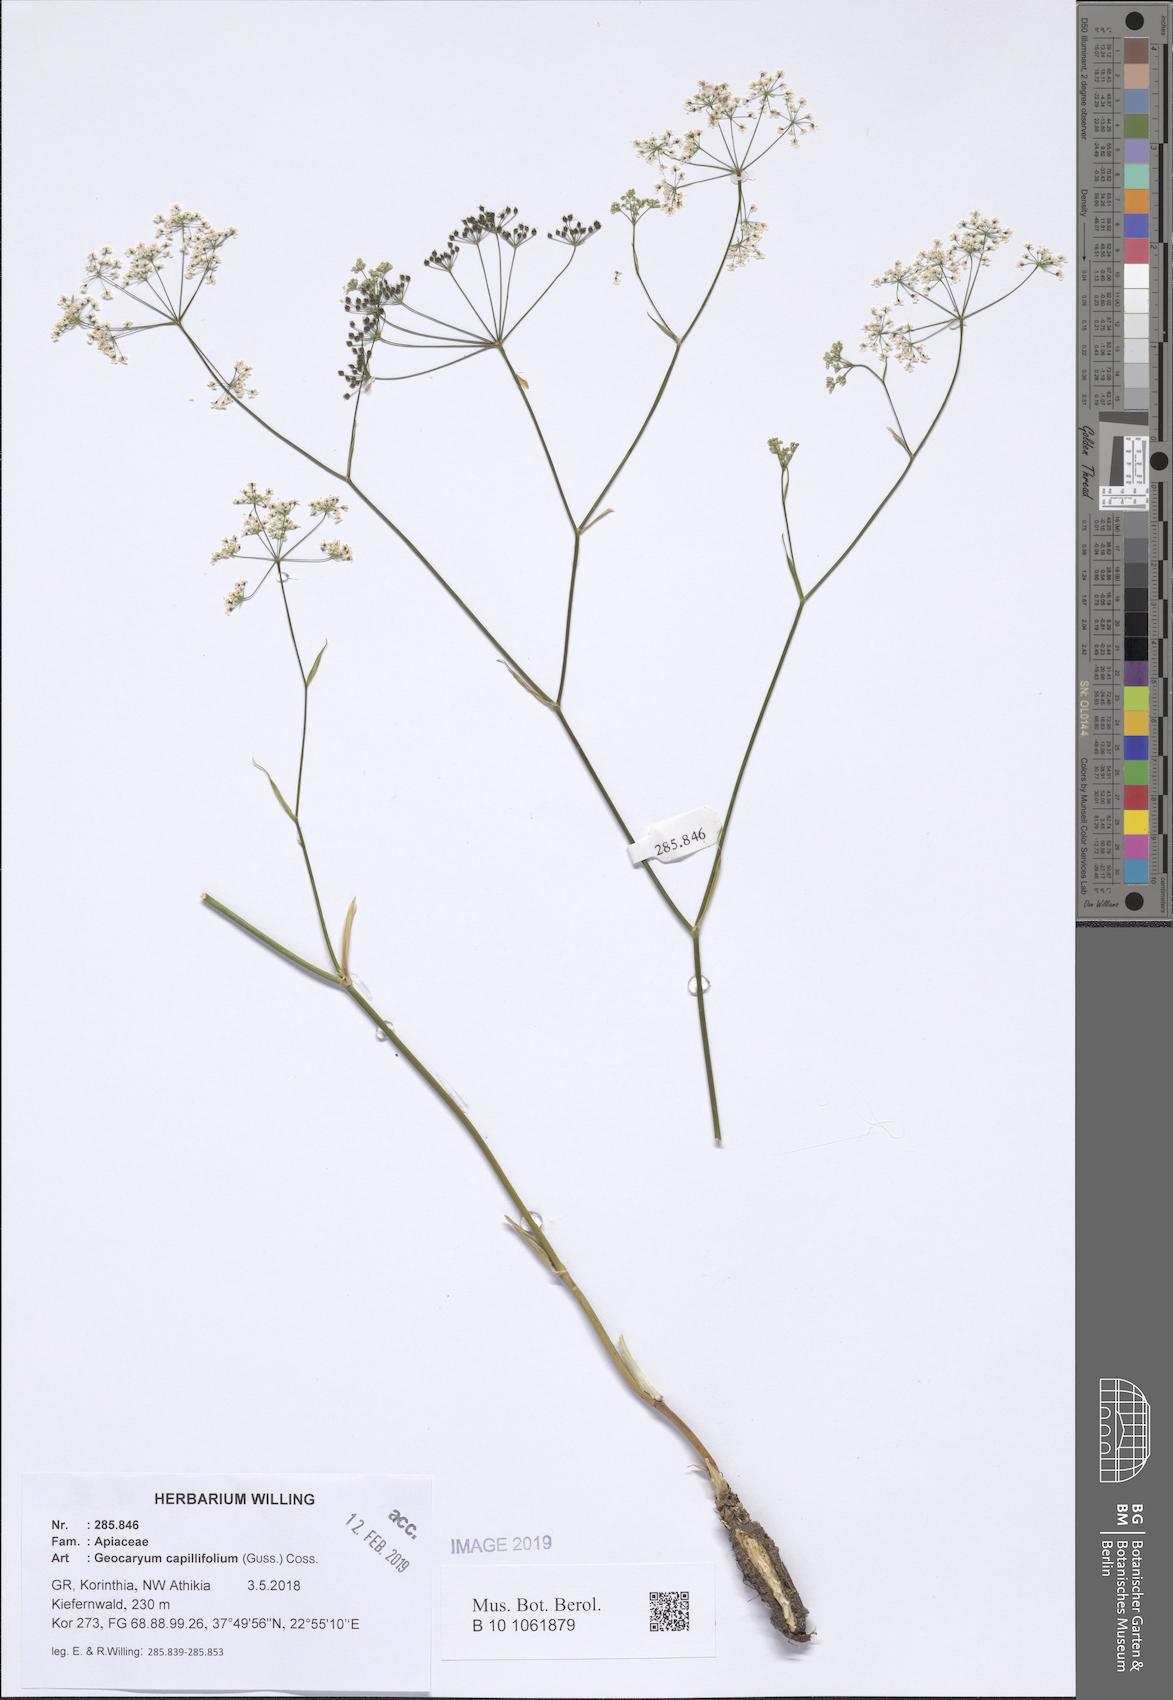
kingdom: Plantae
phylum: Tracheophyta
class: Magnoliopsida
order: Apiales
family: Apiaceae
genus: Geocaryum
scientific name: Geocaryum capillifolium
